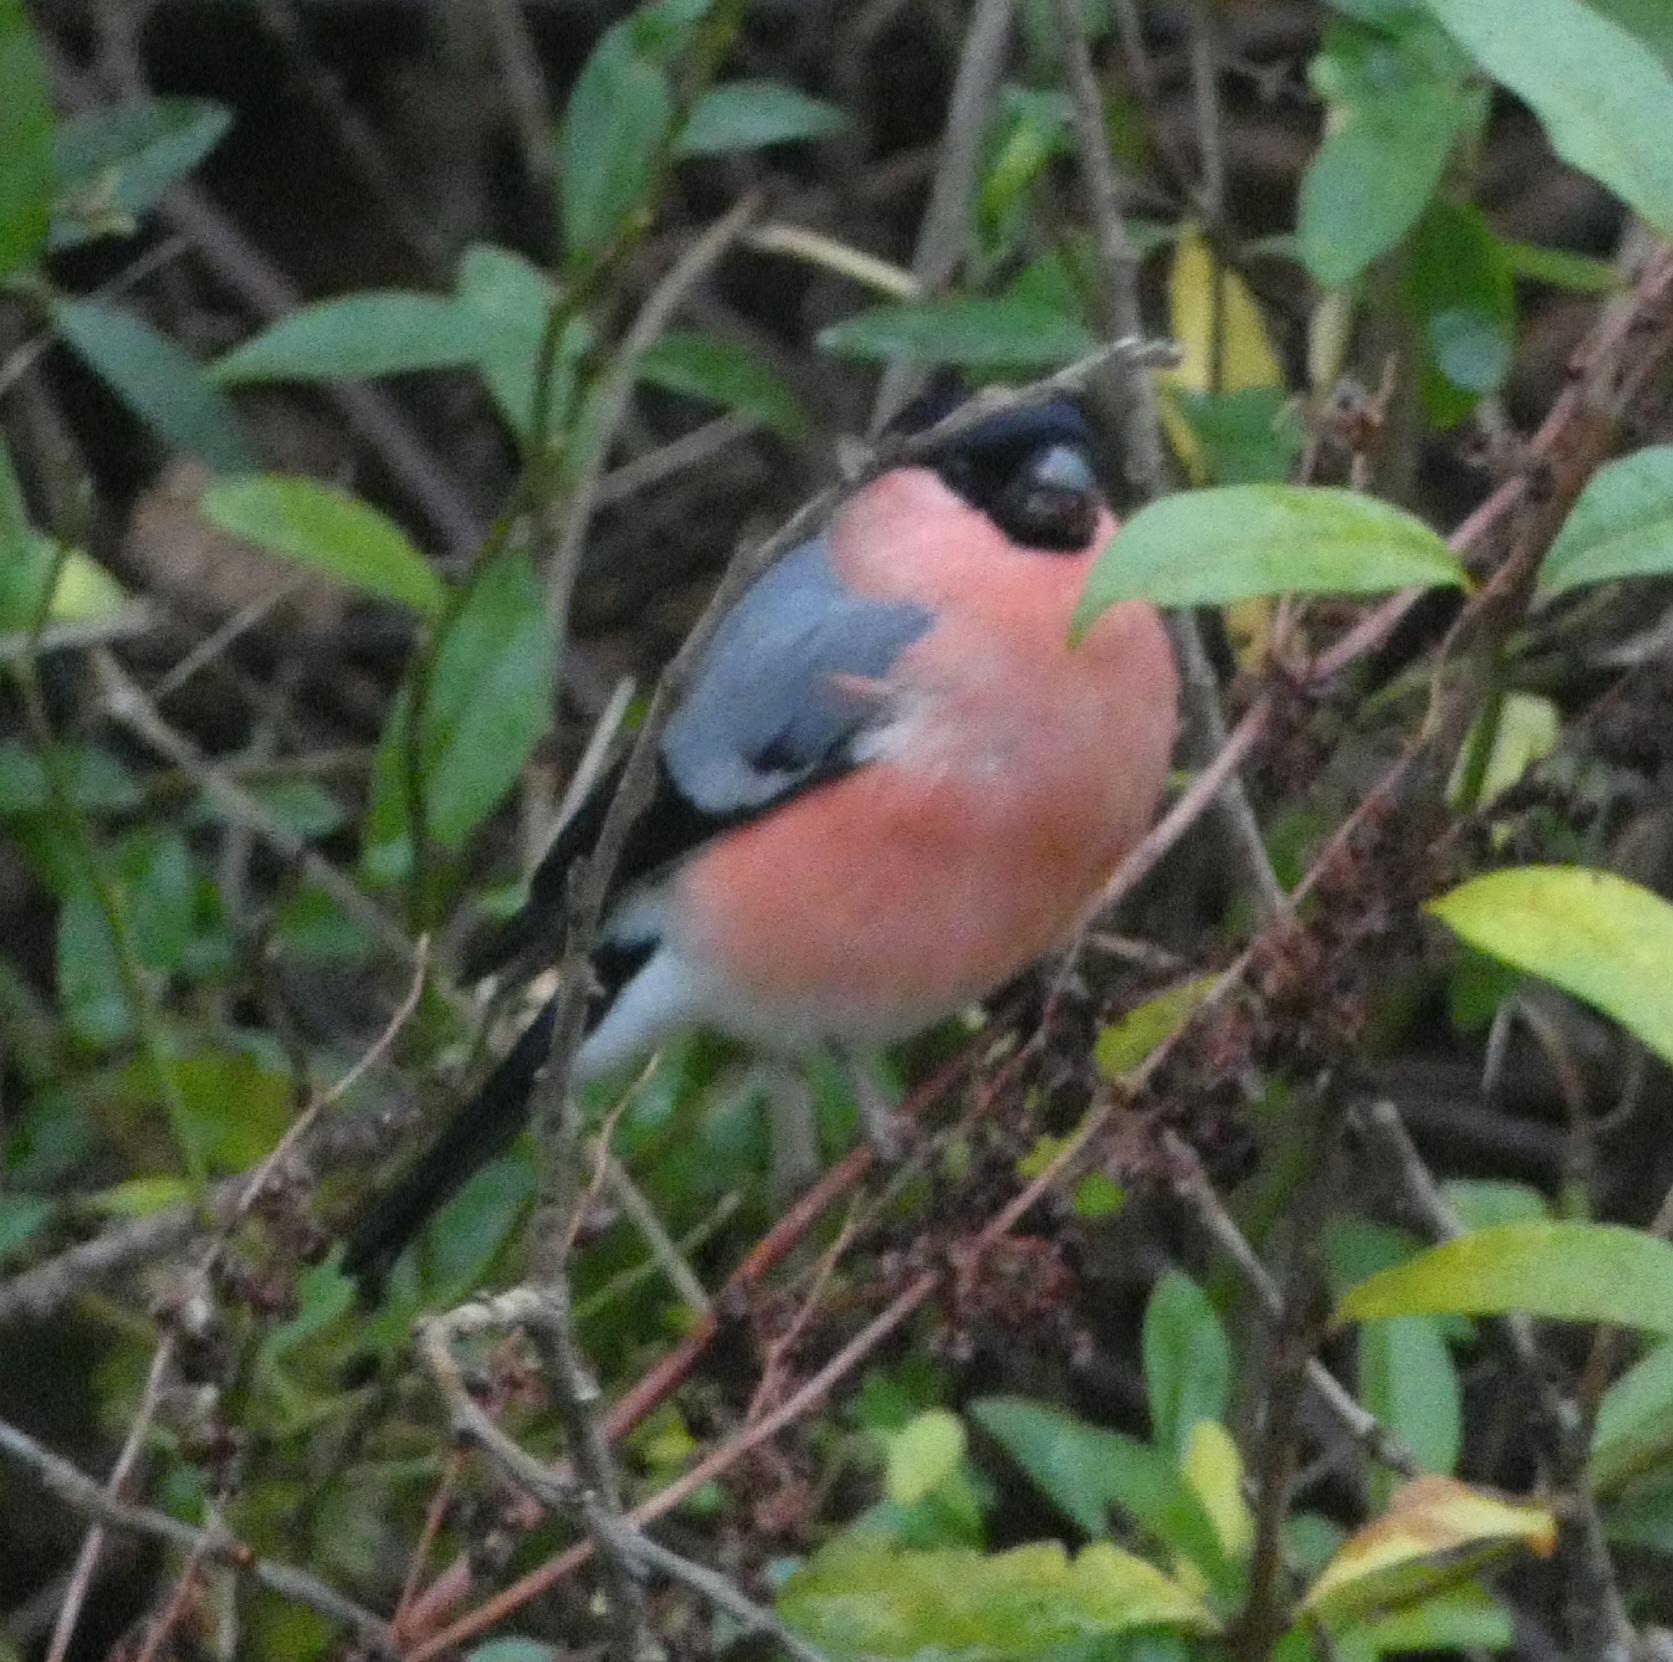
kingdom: Animalia
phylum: Chordata
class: Aves
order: Passeriformes
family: Fringillidae
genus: Pyrrhula
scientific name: Pyrrhula pyrrhula
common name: Dompap
